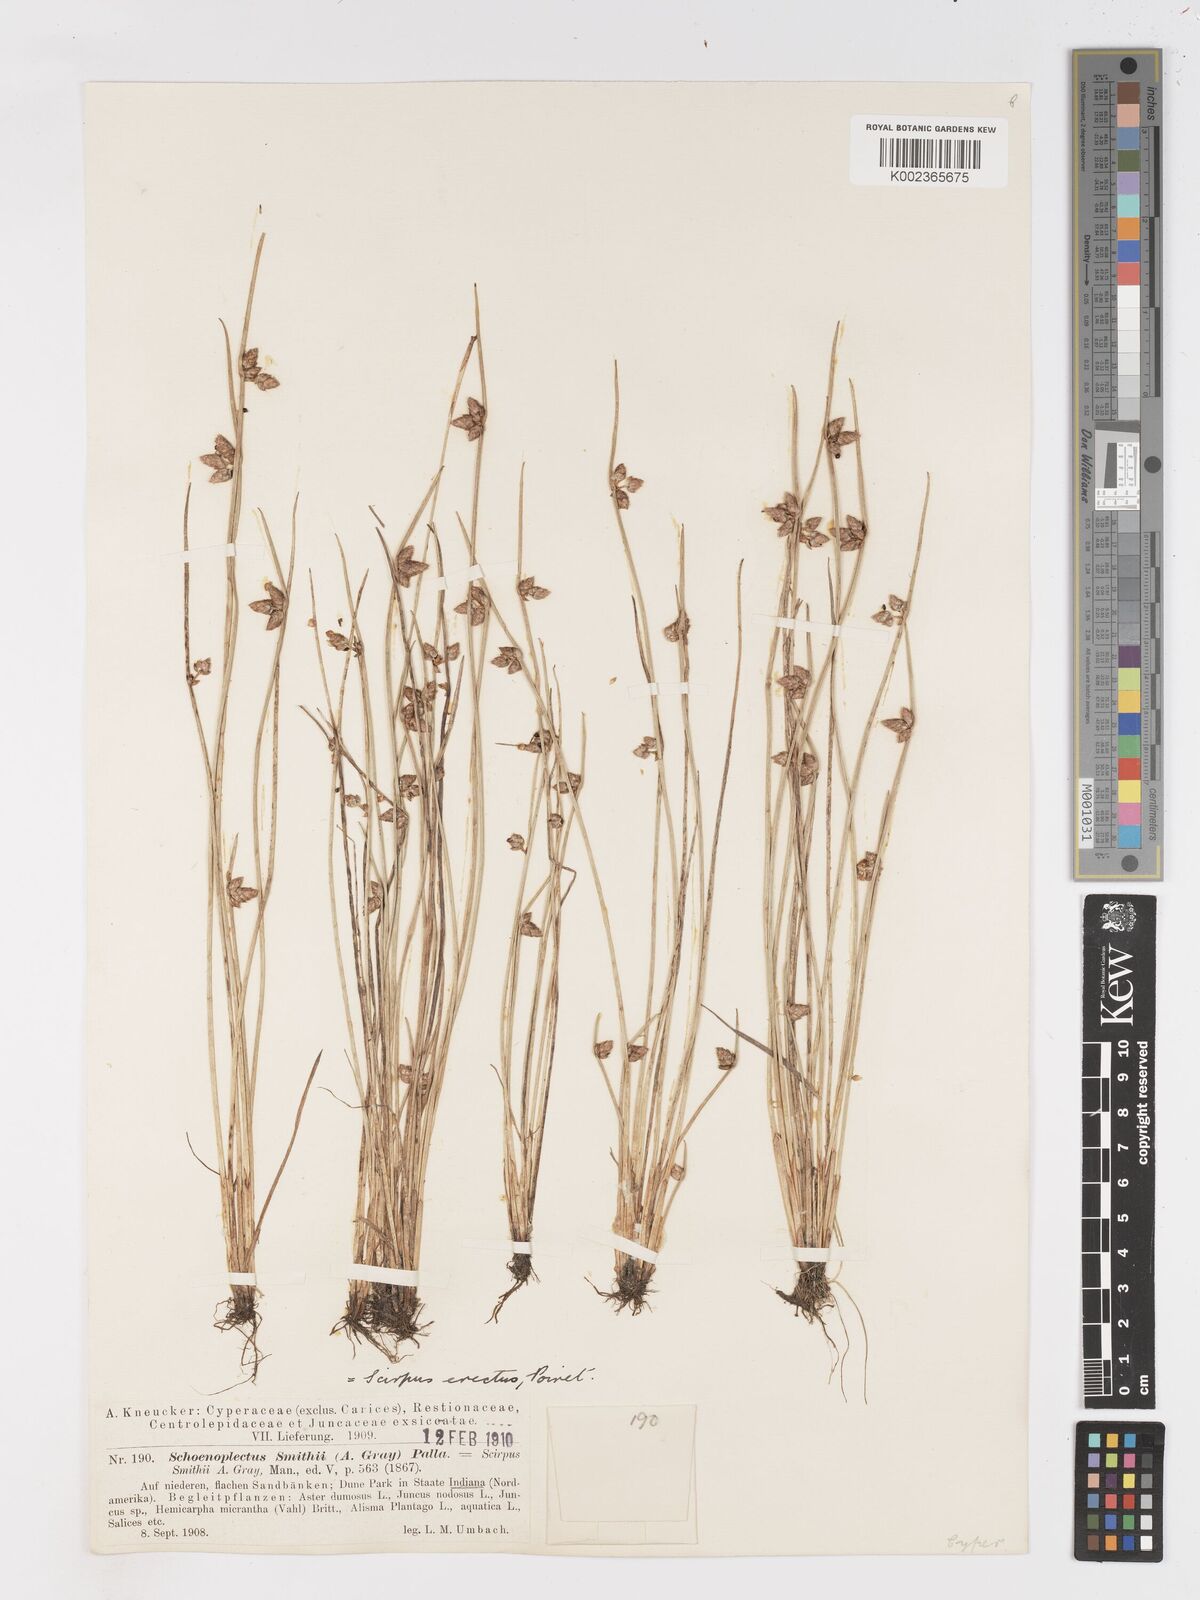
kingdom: Plantae
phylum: Tracheophyta
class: Liliopsida
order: Poales
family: Cyperaceae
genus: Schoenoplectiella
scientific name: Schoenoplectiella purshiana
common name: Weak-stalked bulrush
